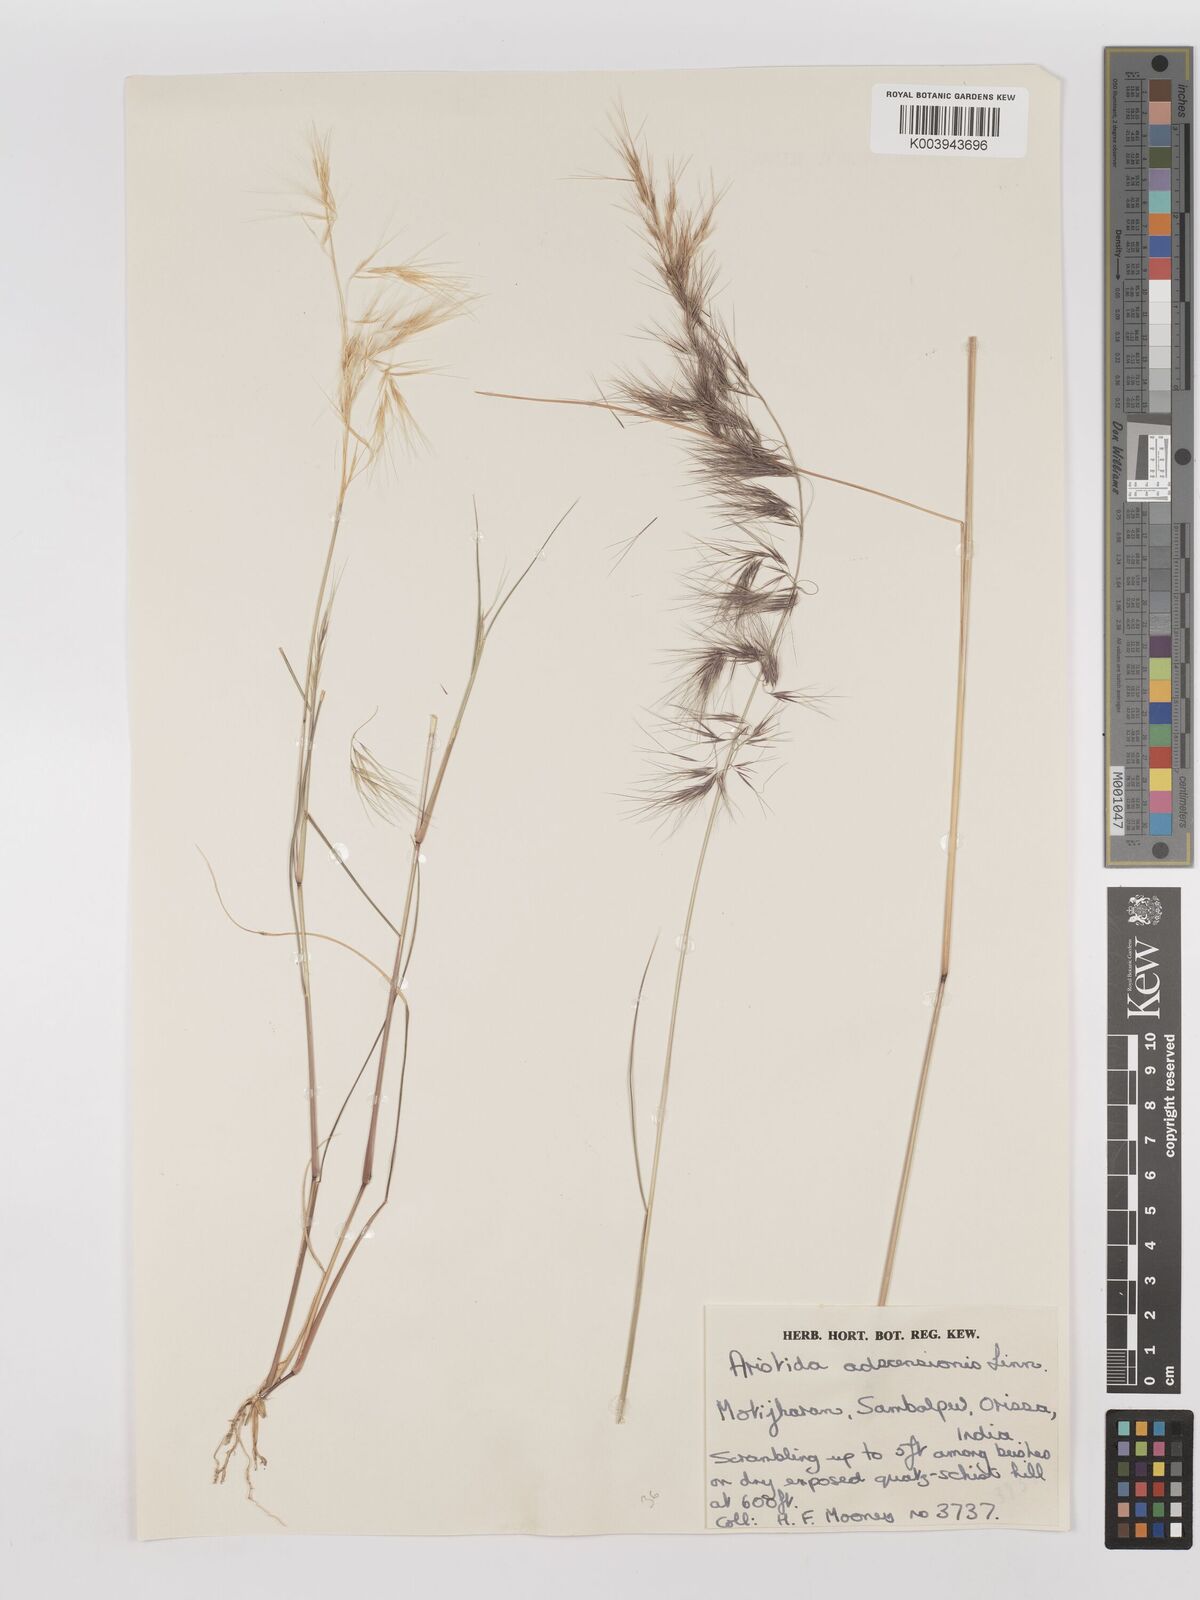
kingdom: Plantae
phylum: Tracheophyta
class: Liliopsida
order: Poales
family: Poaceae
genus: Aristida
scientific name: Aristida adscensionis
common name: Sixweeks threeawn
